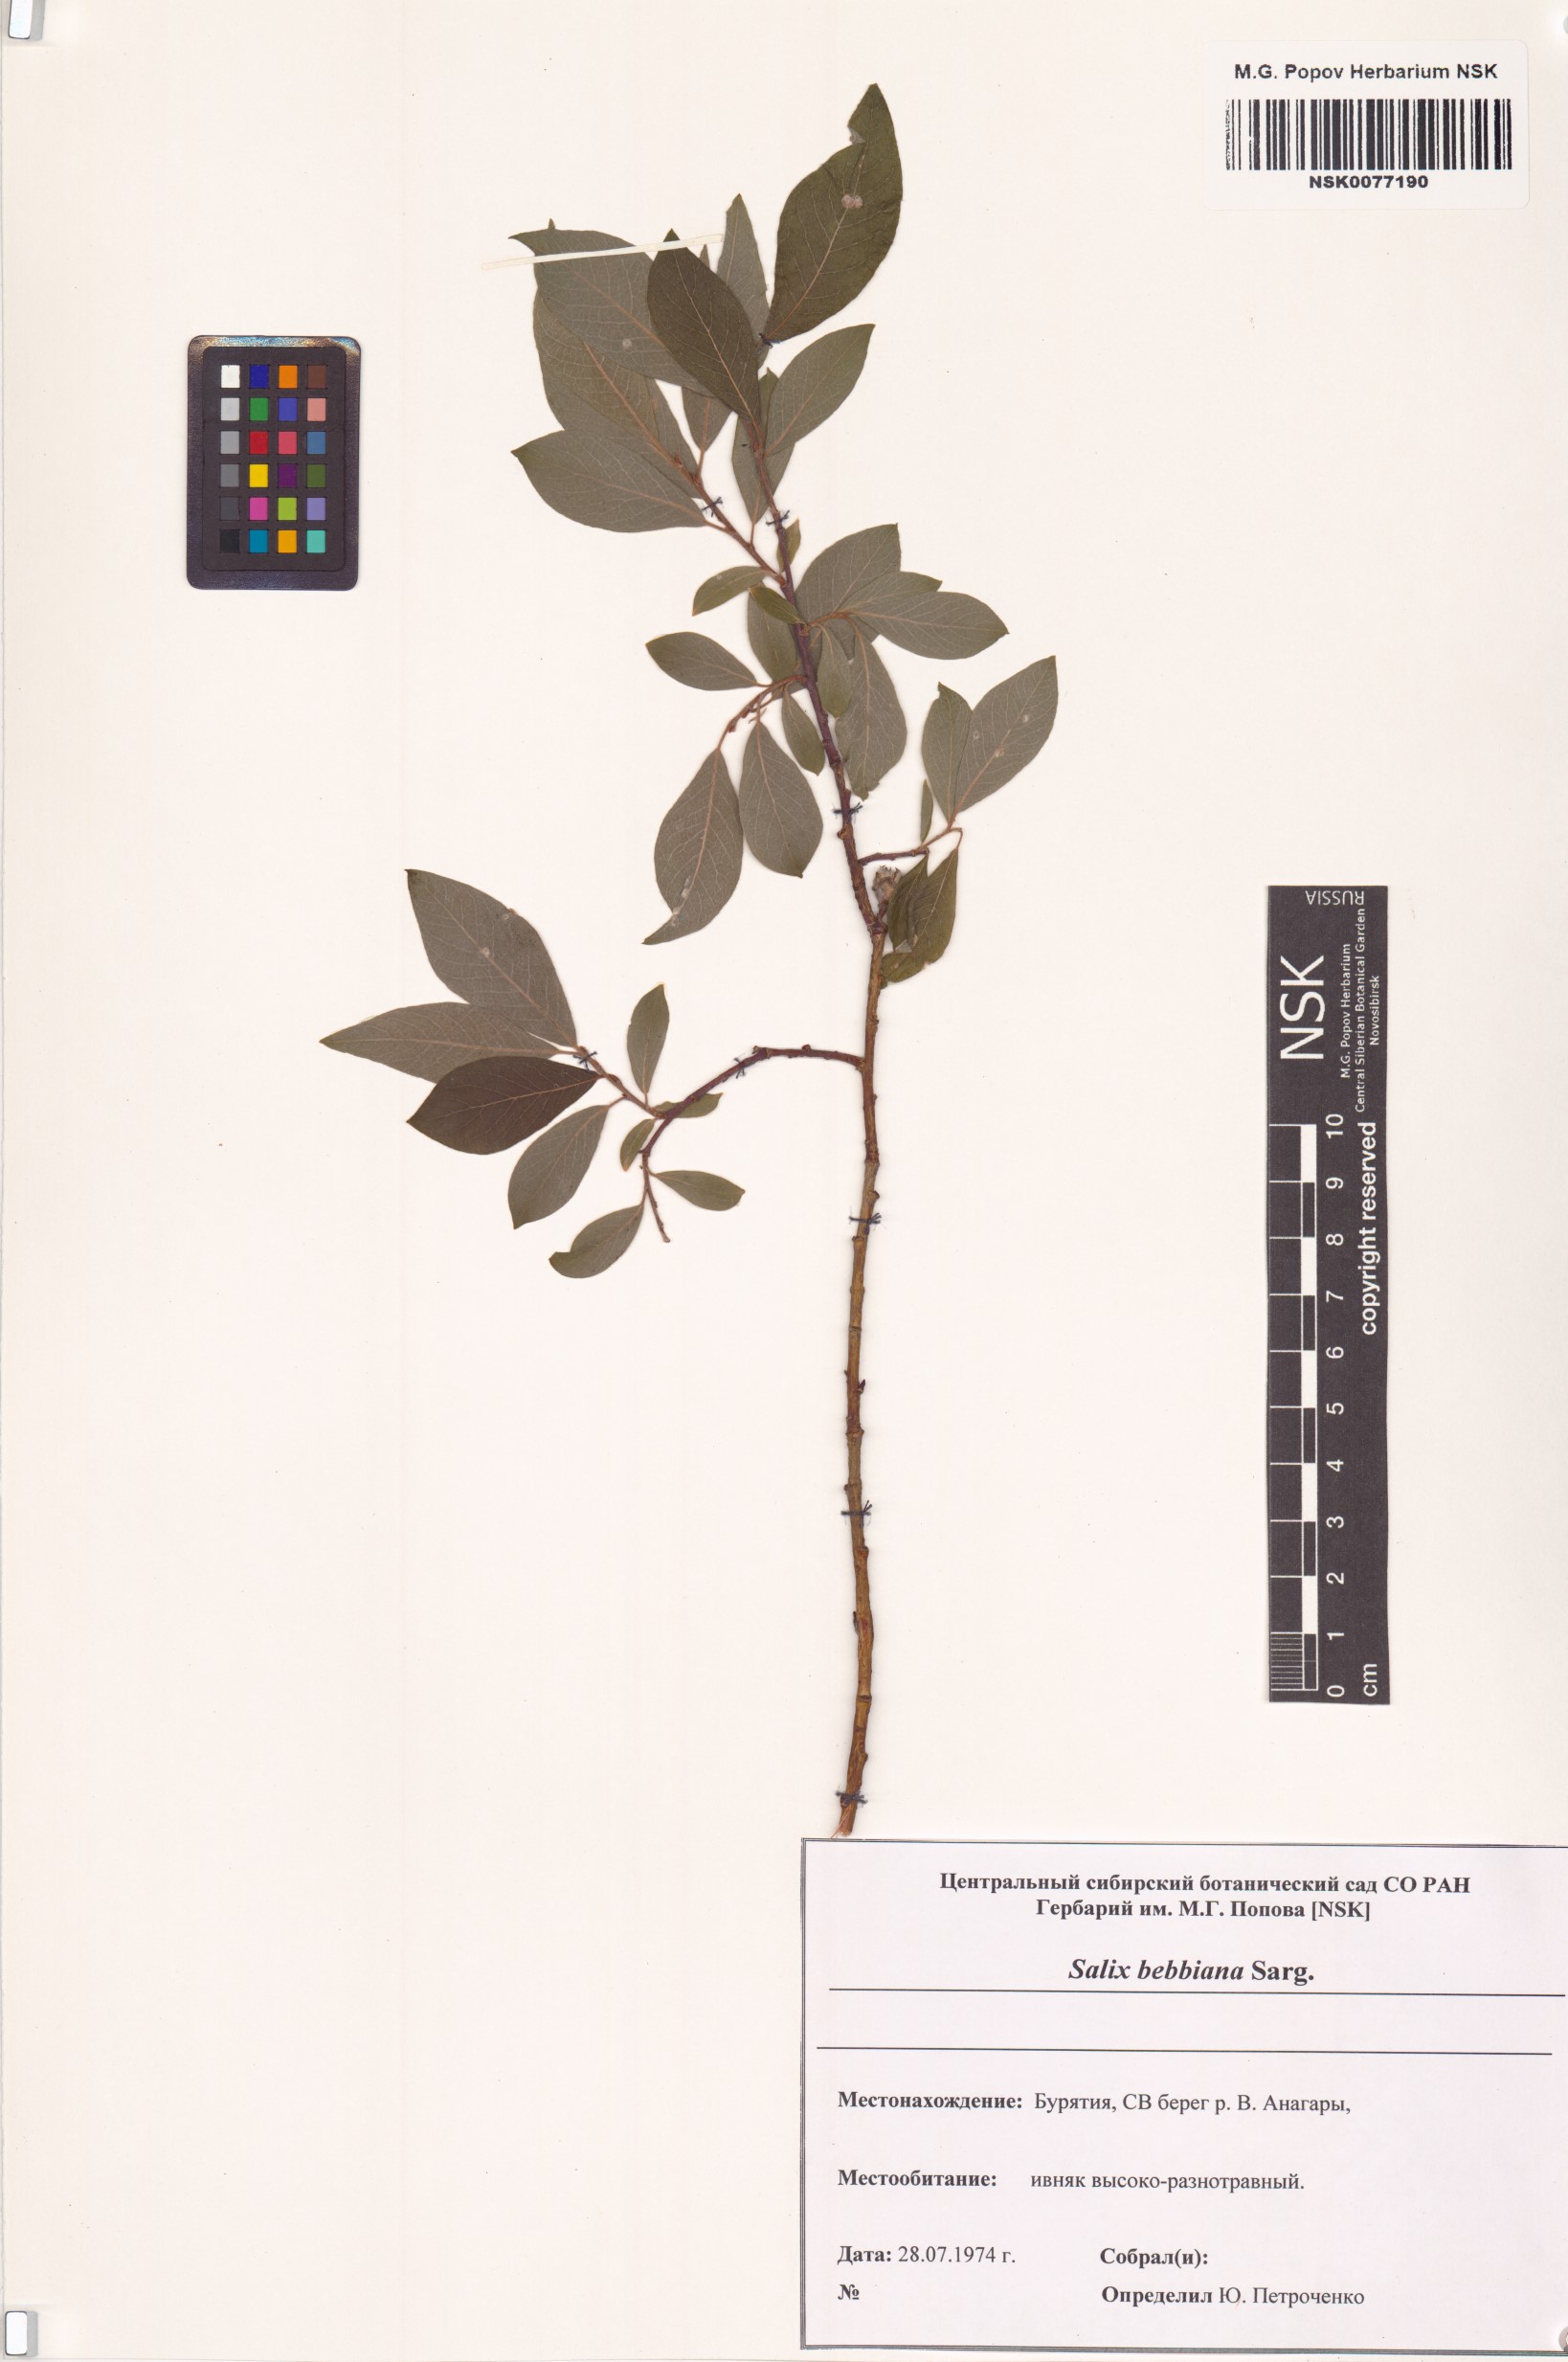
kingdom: Plantae
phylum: Tracheophyta
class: Magnoliopsida
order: Malpighiales
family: Salicaceae
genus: Salix
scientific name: Salix bebbiana
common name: Bebb's willow
